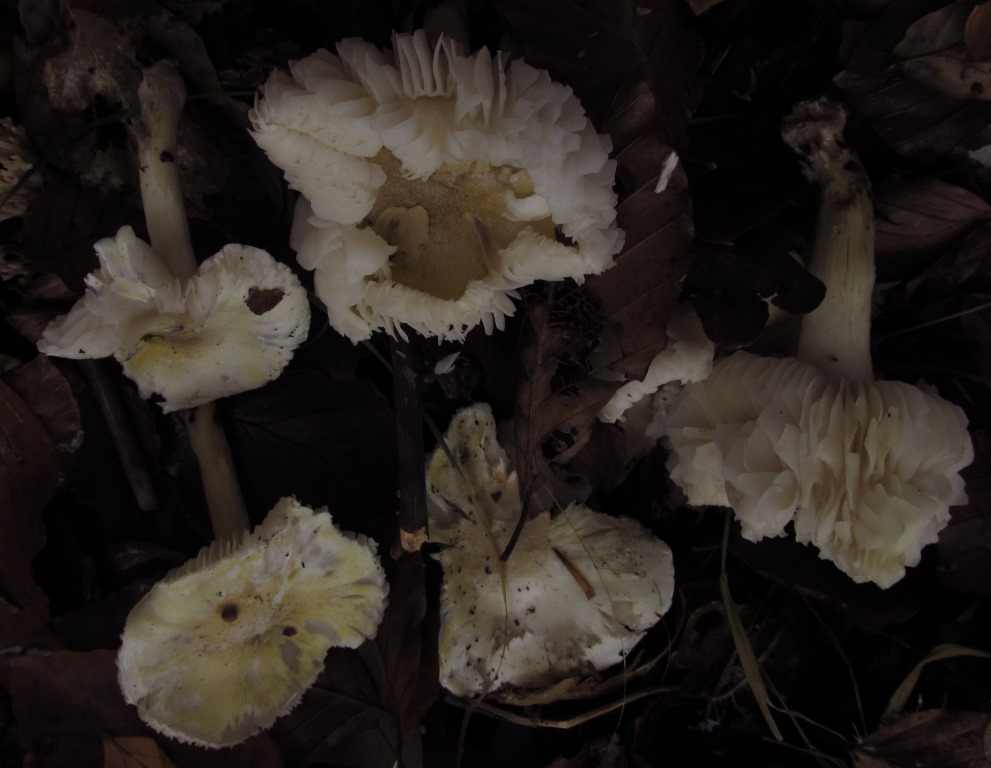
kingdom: Fungi
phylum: Basidiomycota
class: Agaricomycetes
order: Agaricales
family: Tricholomataceae
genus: Tricholoma
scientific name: Tricholoma sejunctum
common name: grøngul ridderhat
